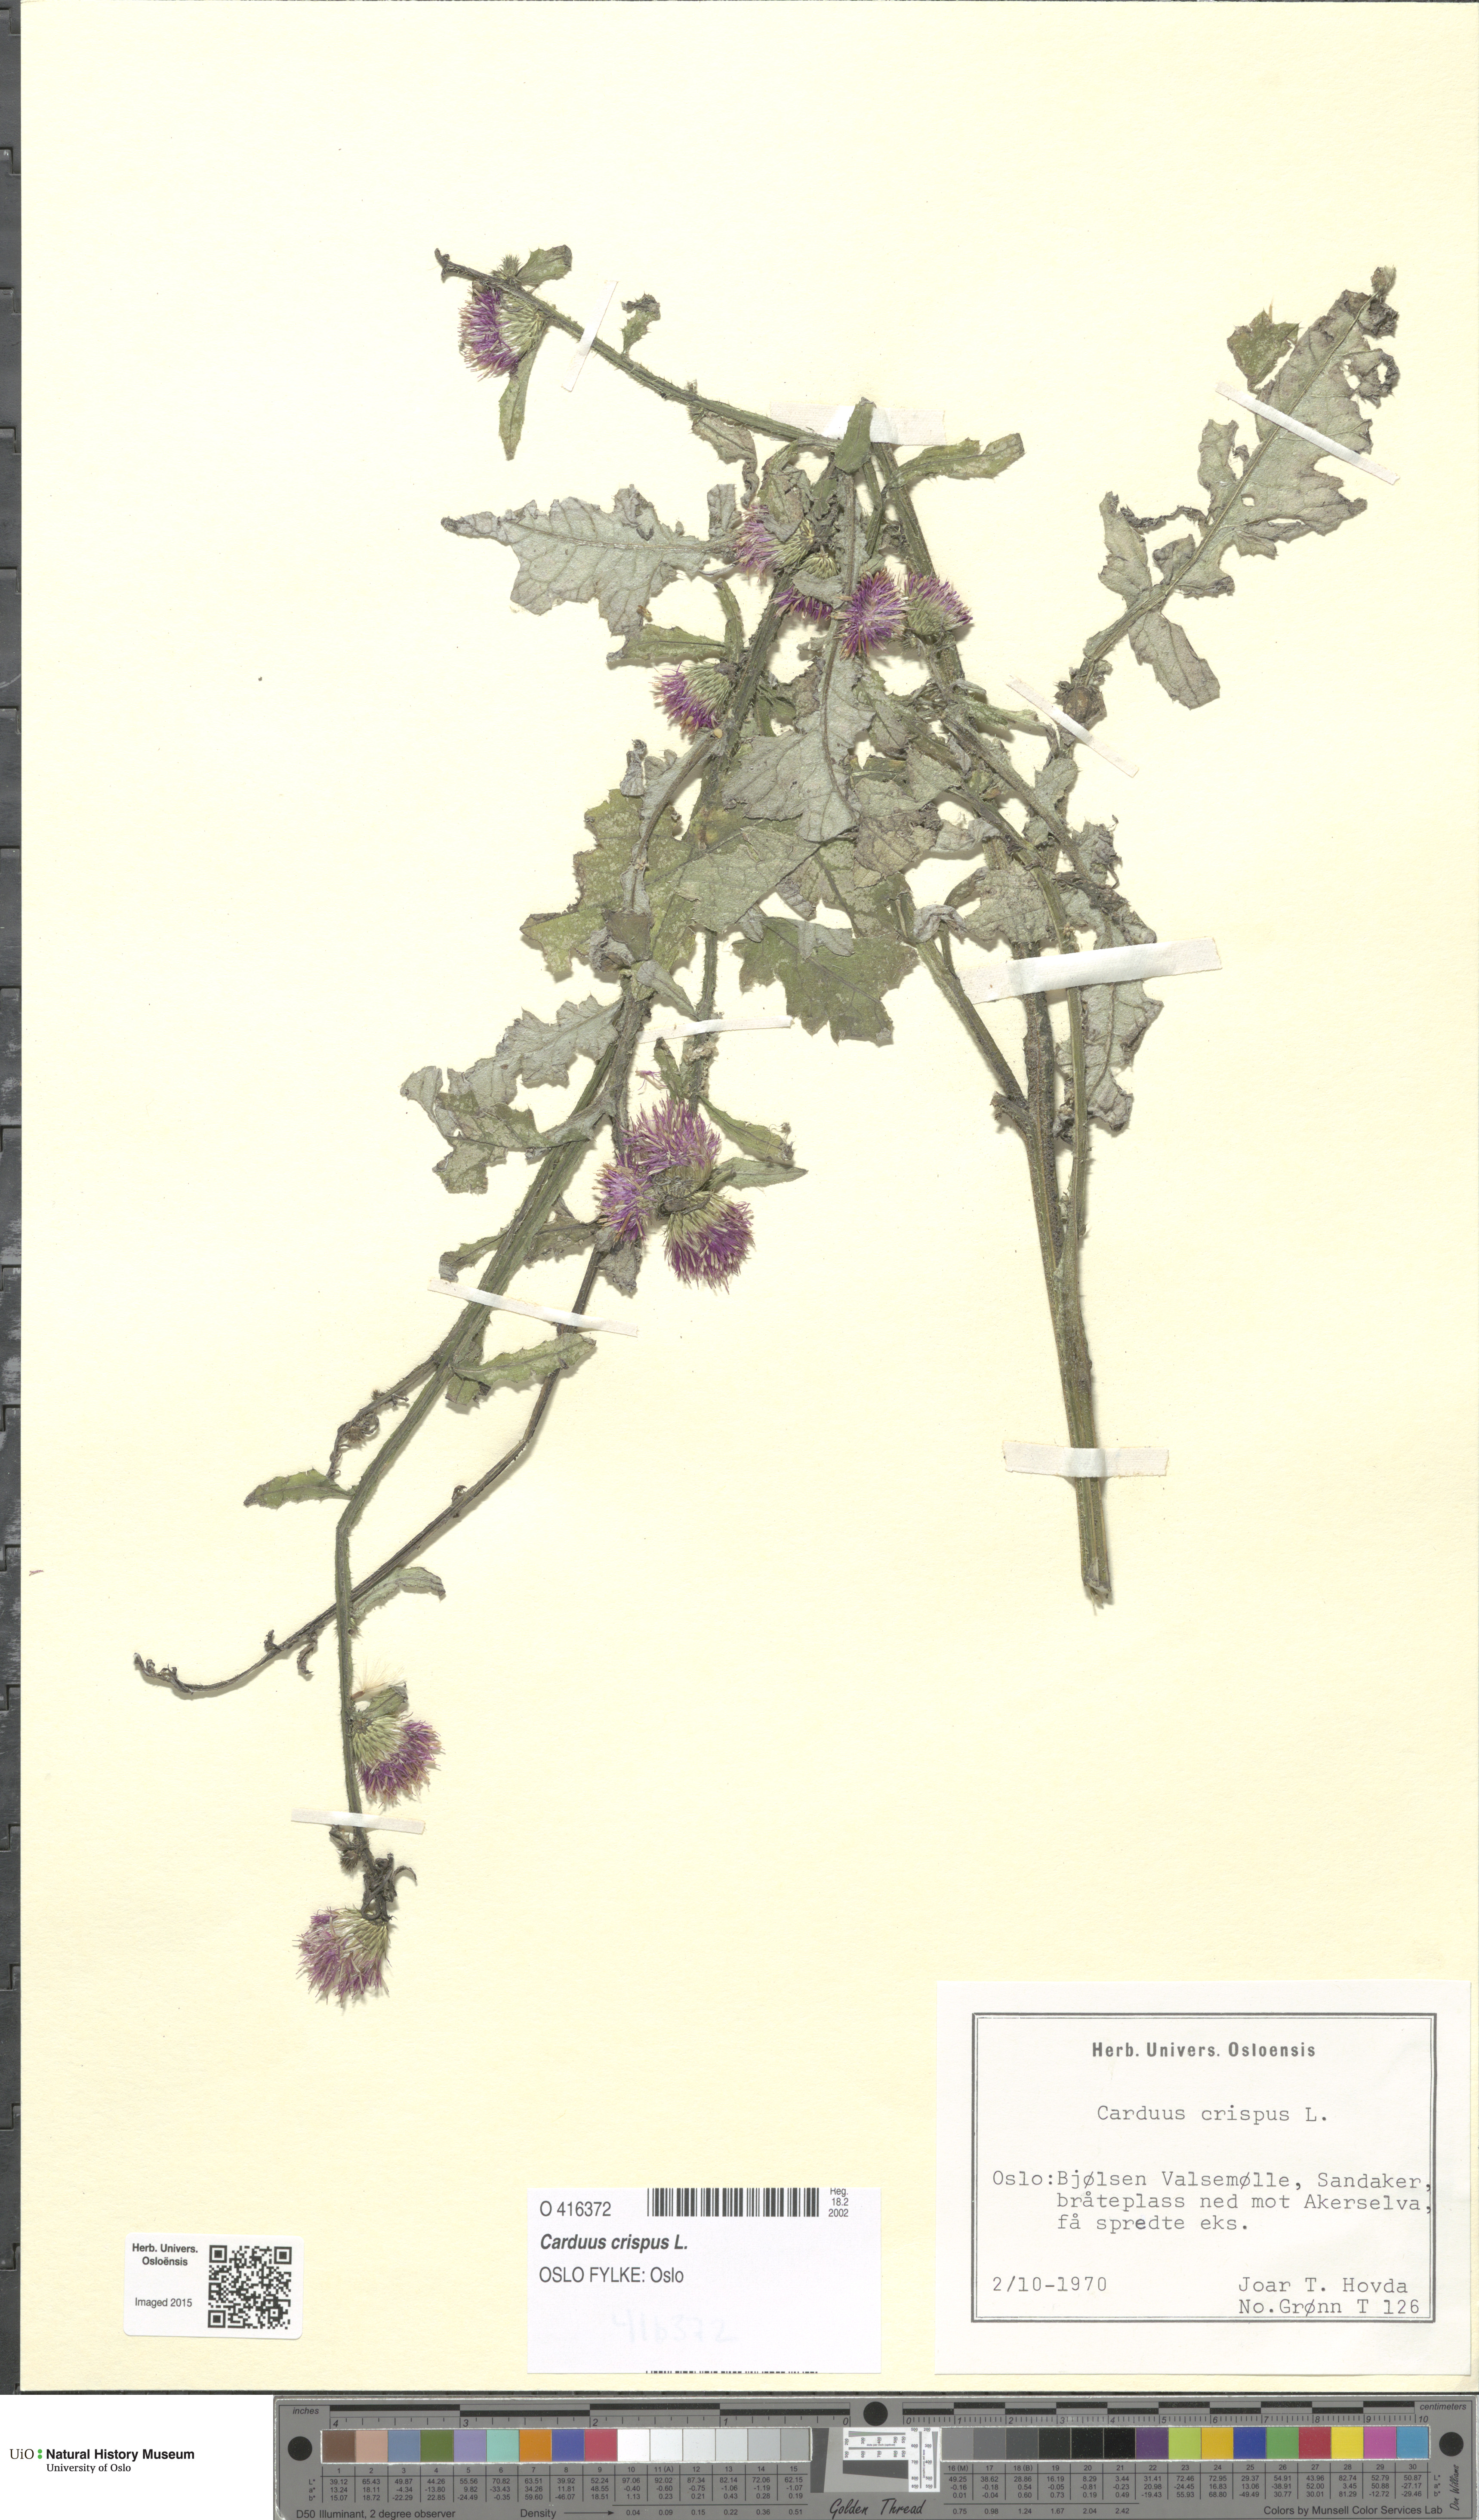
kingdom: Plantae
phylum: Tracheophyta
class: Magnoliopsida
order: Asterales
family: Asteraceae
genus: Carduus
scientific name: Carduus crispus
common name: Welted thistle
